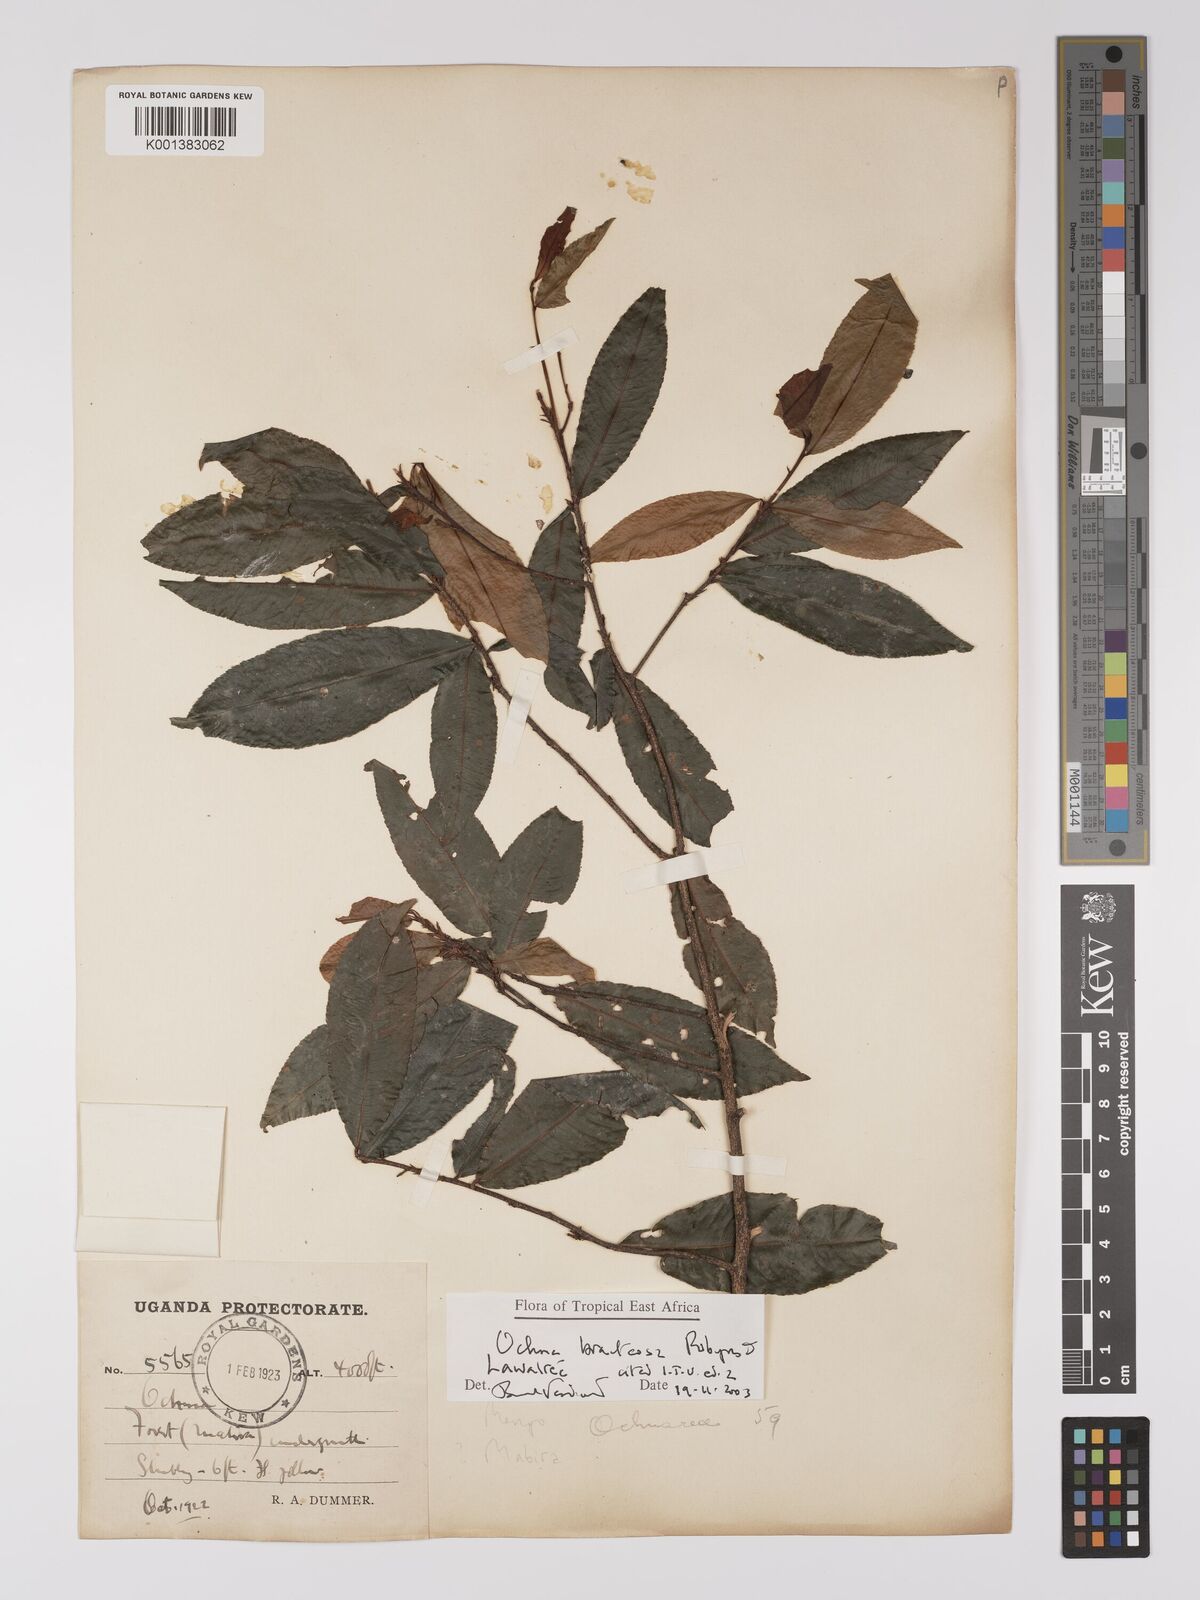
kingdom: Plantae
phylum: Tracheophyta
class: Magnoliopsida
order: Malpighiales
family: Ochnaceae
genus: Ochna
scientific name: Ochna bracteosa
